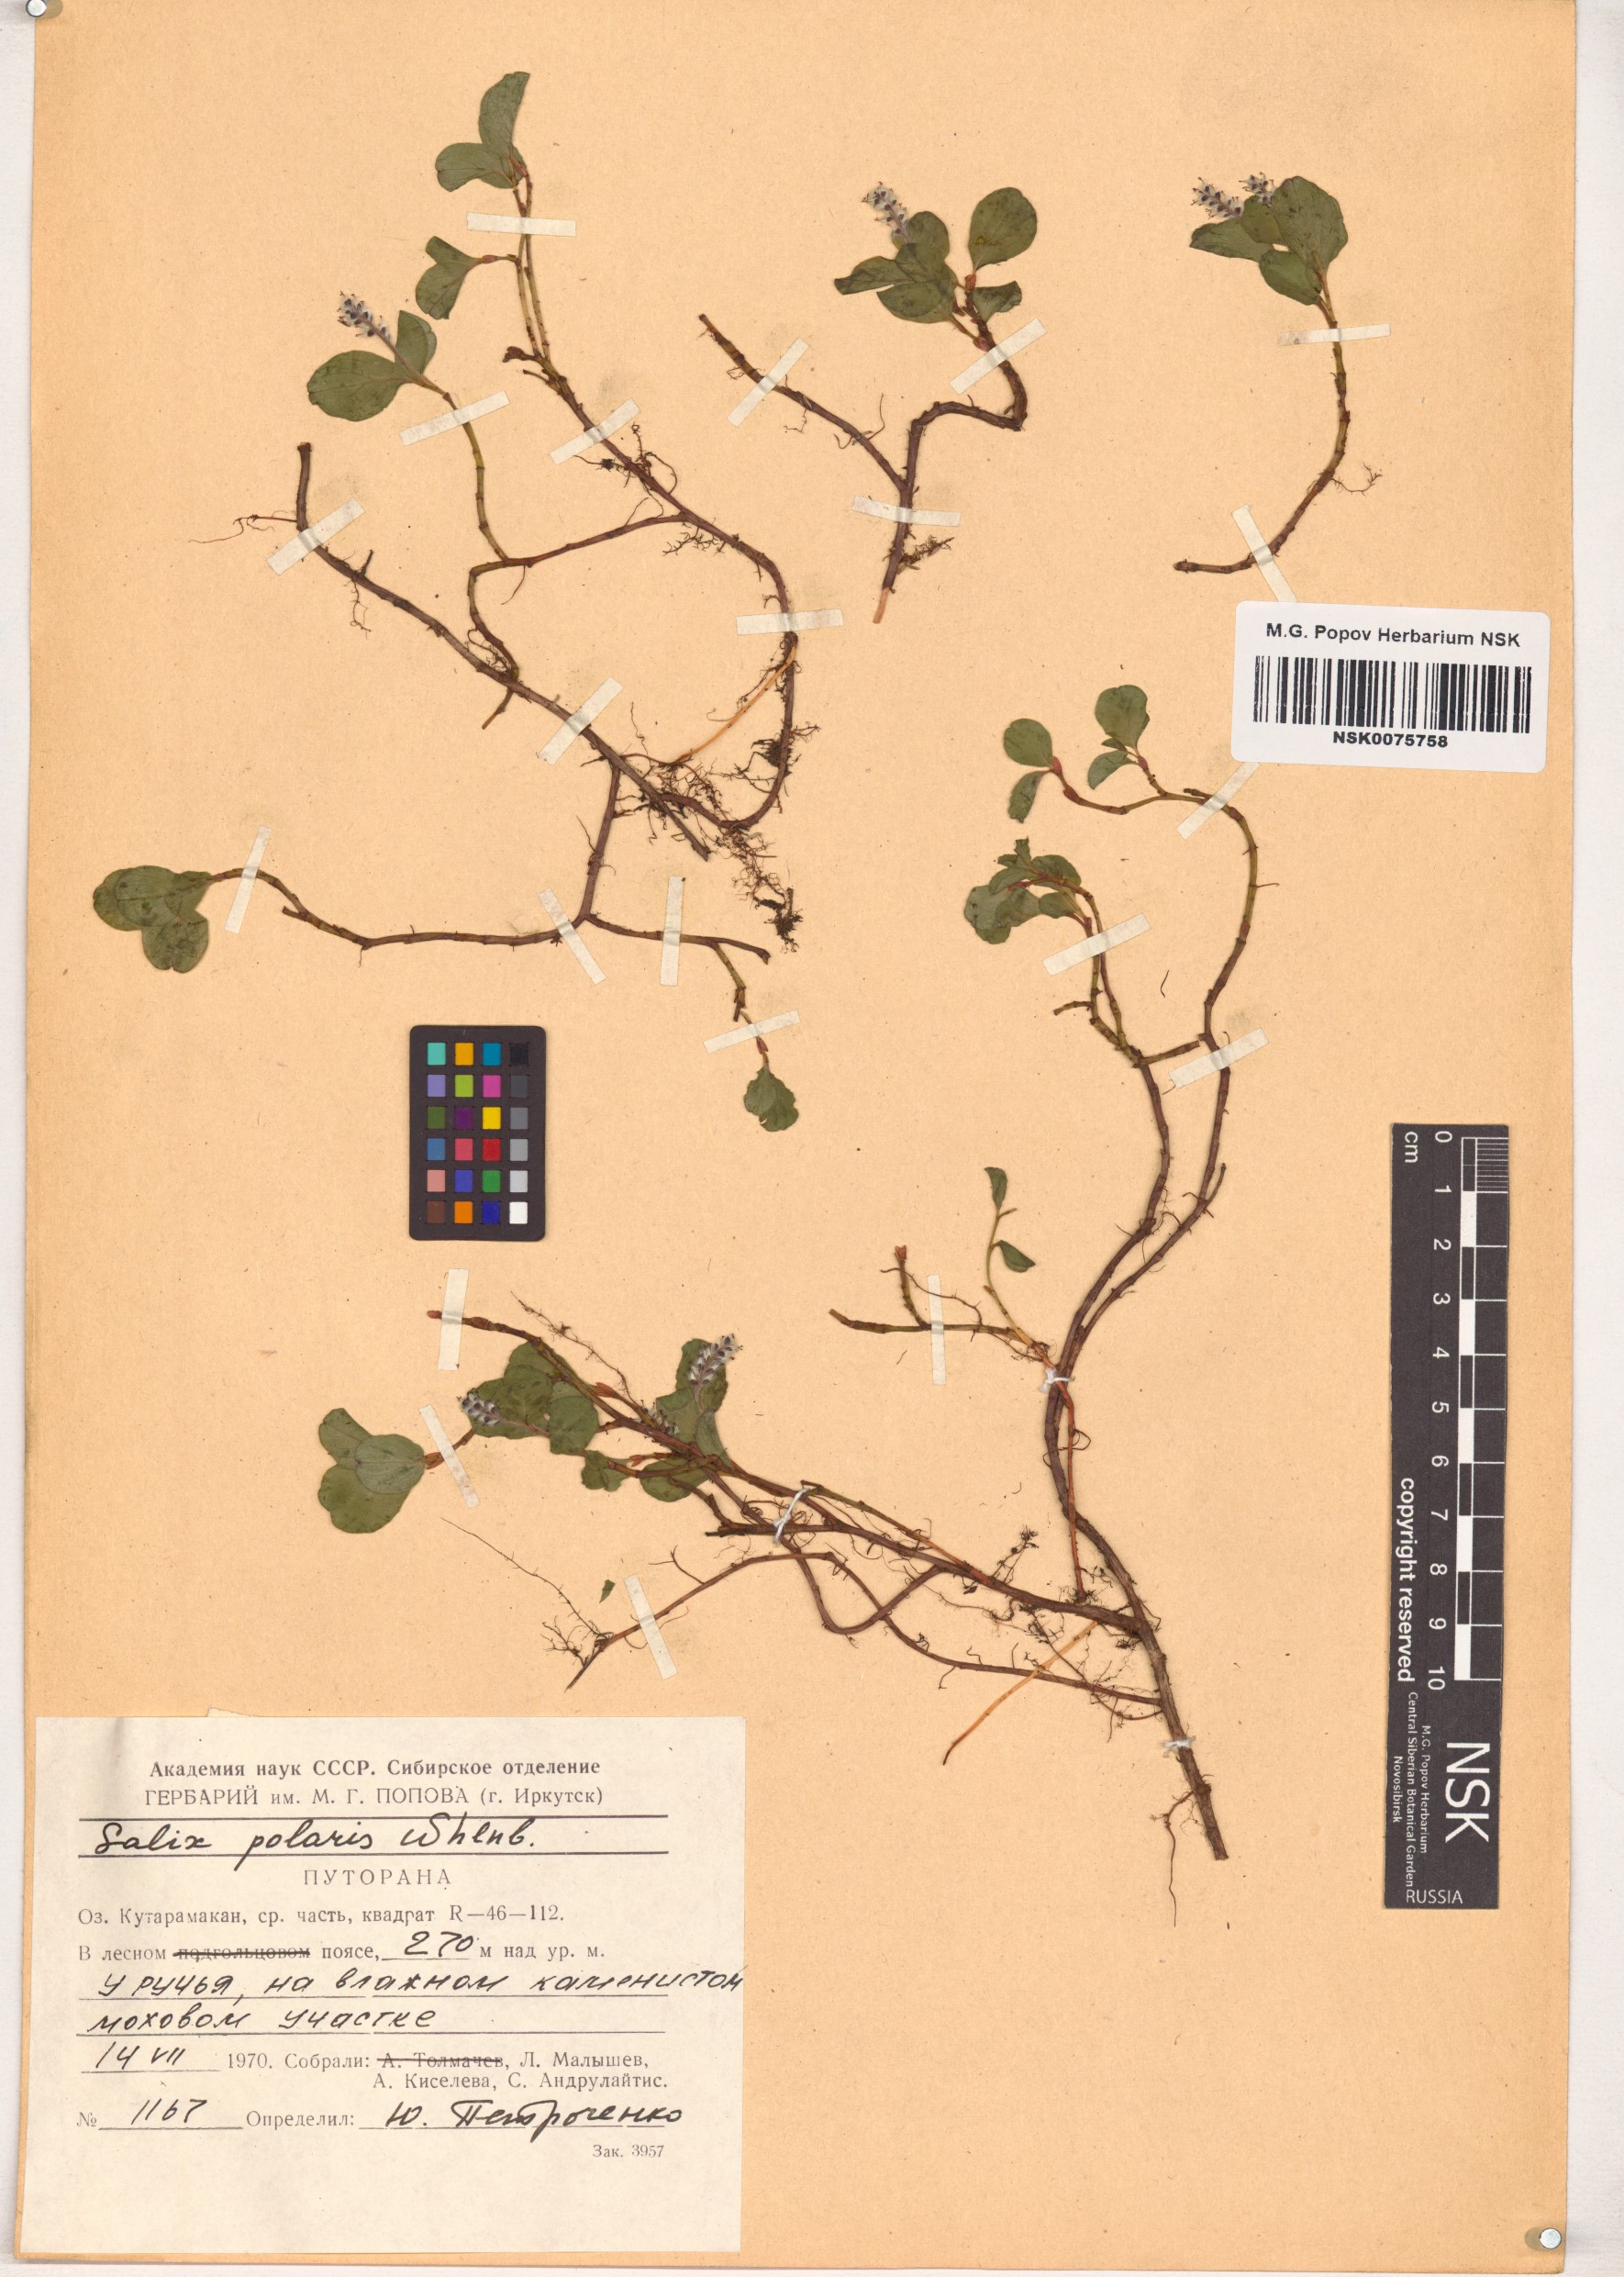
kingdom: Plantae
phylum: Tracheophyta
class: Magnoliopsida
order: Malpighiales
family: Salicaceae
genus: Salix
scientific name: Salix polaris
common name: Polar willow
